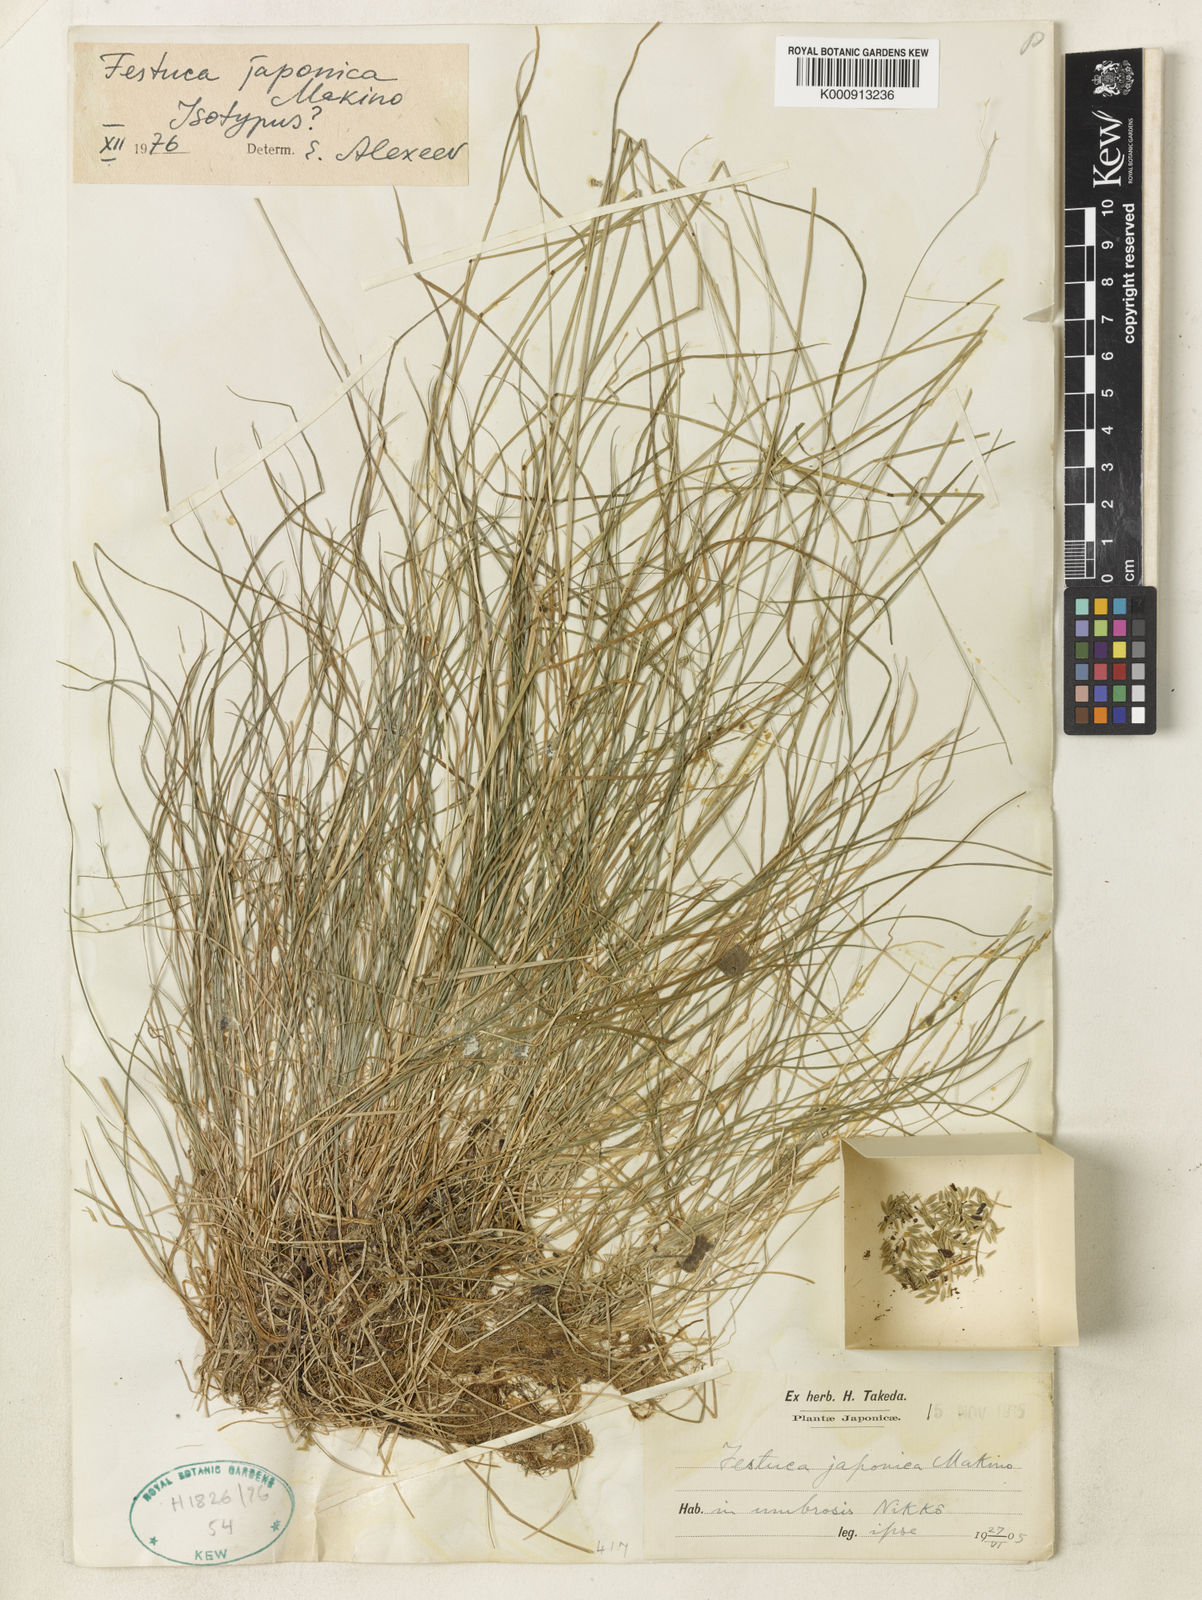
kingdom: Plantae
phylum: Tracheophyta
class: Liliopsida
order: Poales
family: Poaceae
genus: Festuca
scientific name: Festuca japonica
